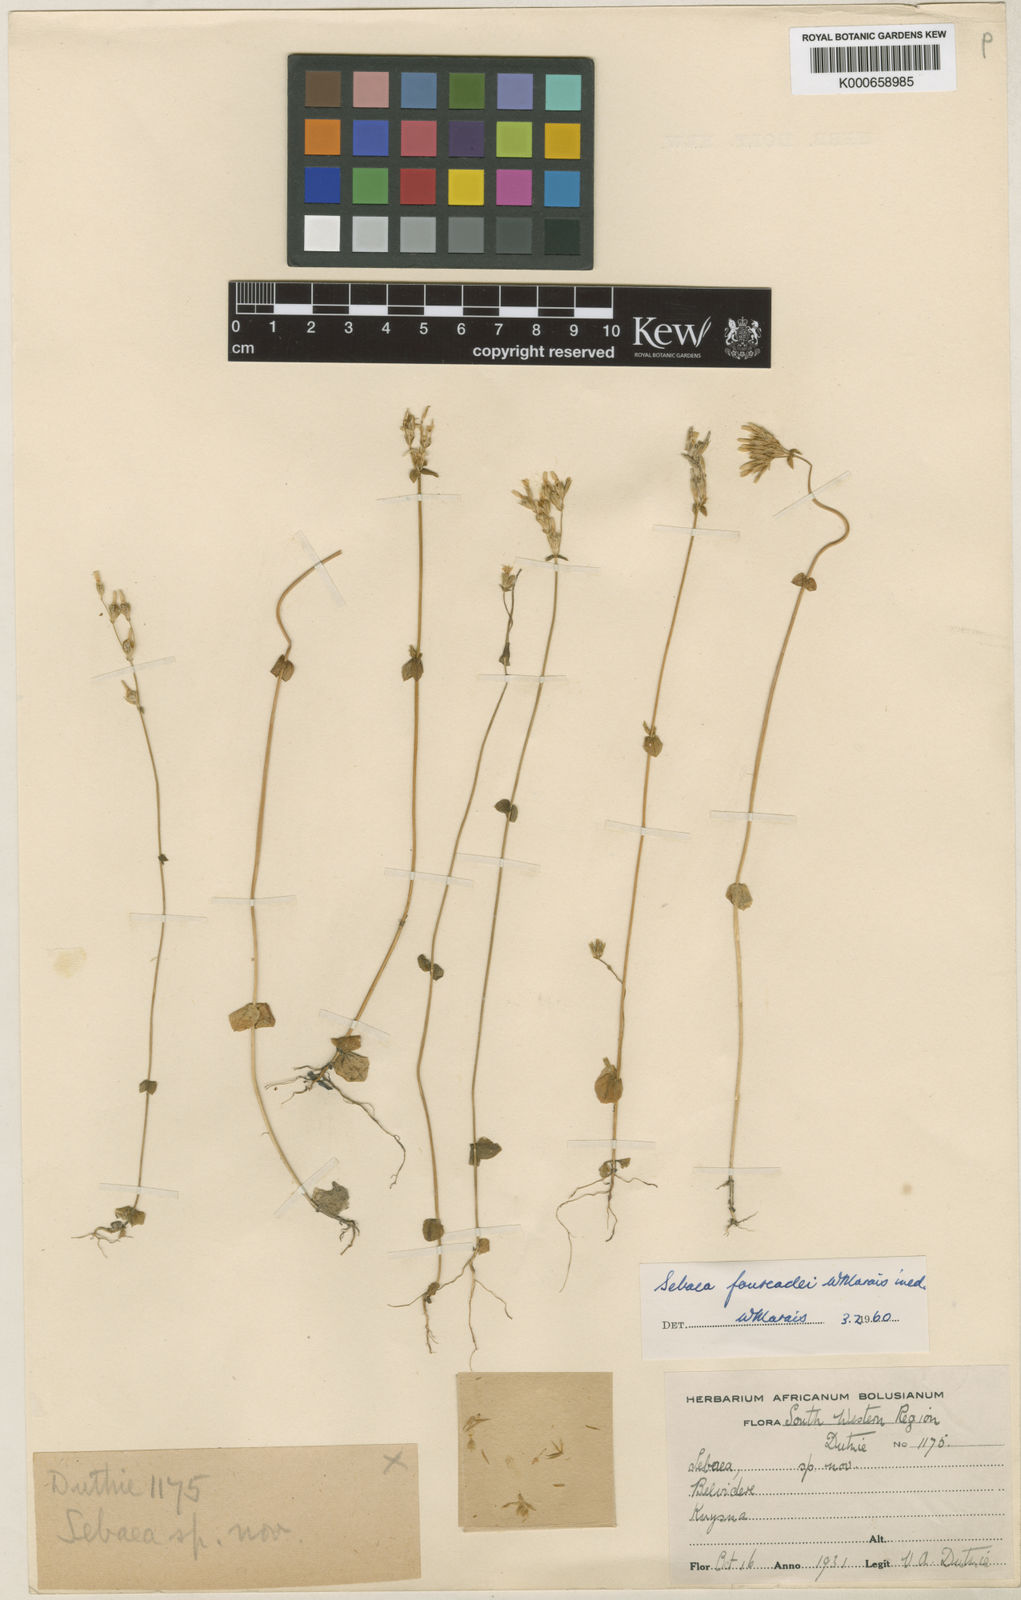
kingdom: Plantae
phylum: Tracheophyta
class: Magnoliopsida
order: Gentianales
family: Gentianaceae
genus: Sebaea
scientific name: Sebaea fourcadei
